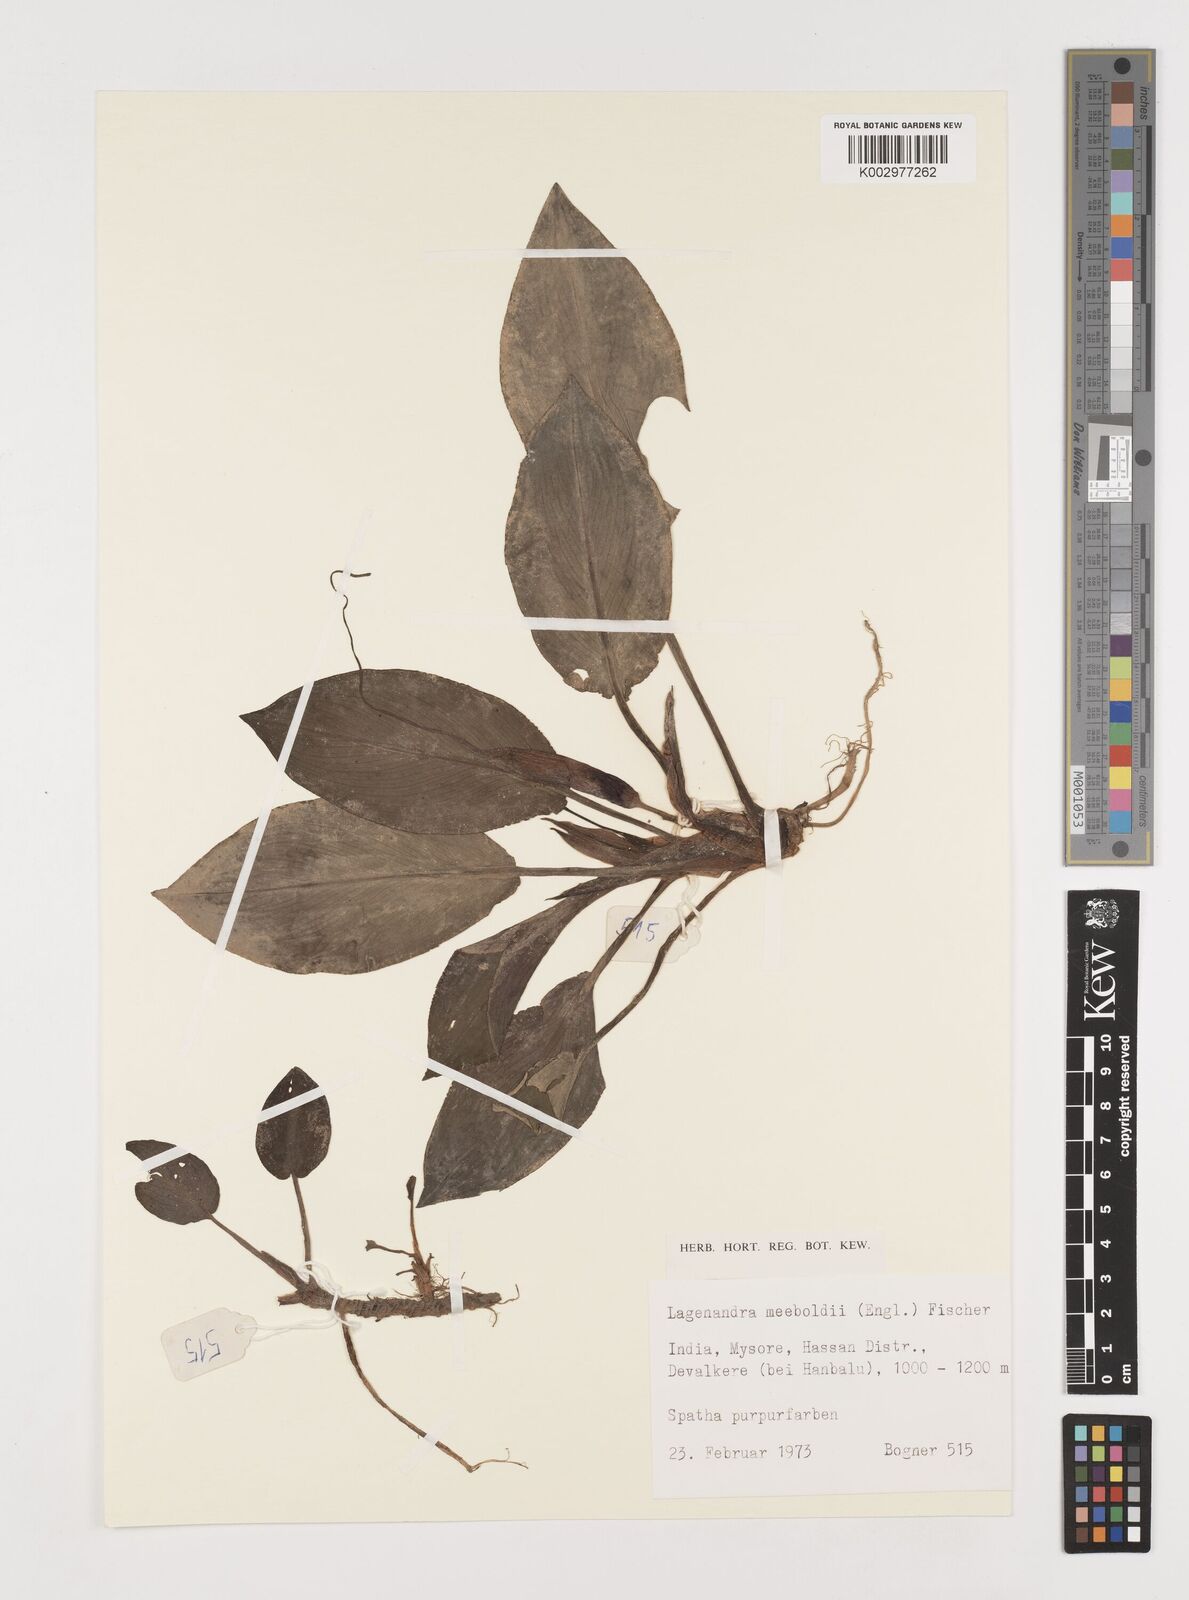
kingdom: Plantae
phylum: Tracheophyta
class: Liliopsida
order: Alismatales
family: Araceae
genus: Lagenandra
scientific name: Lagenandra meeboldii
